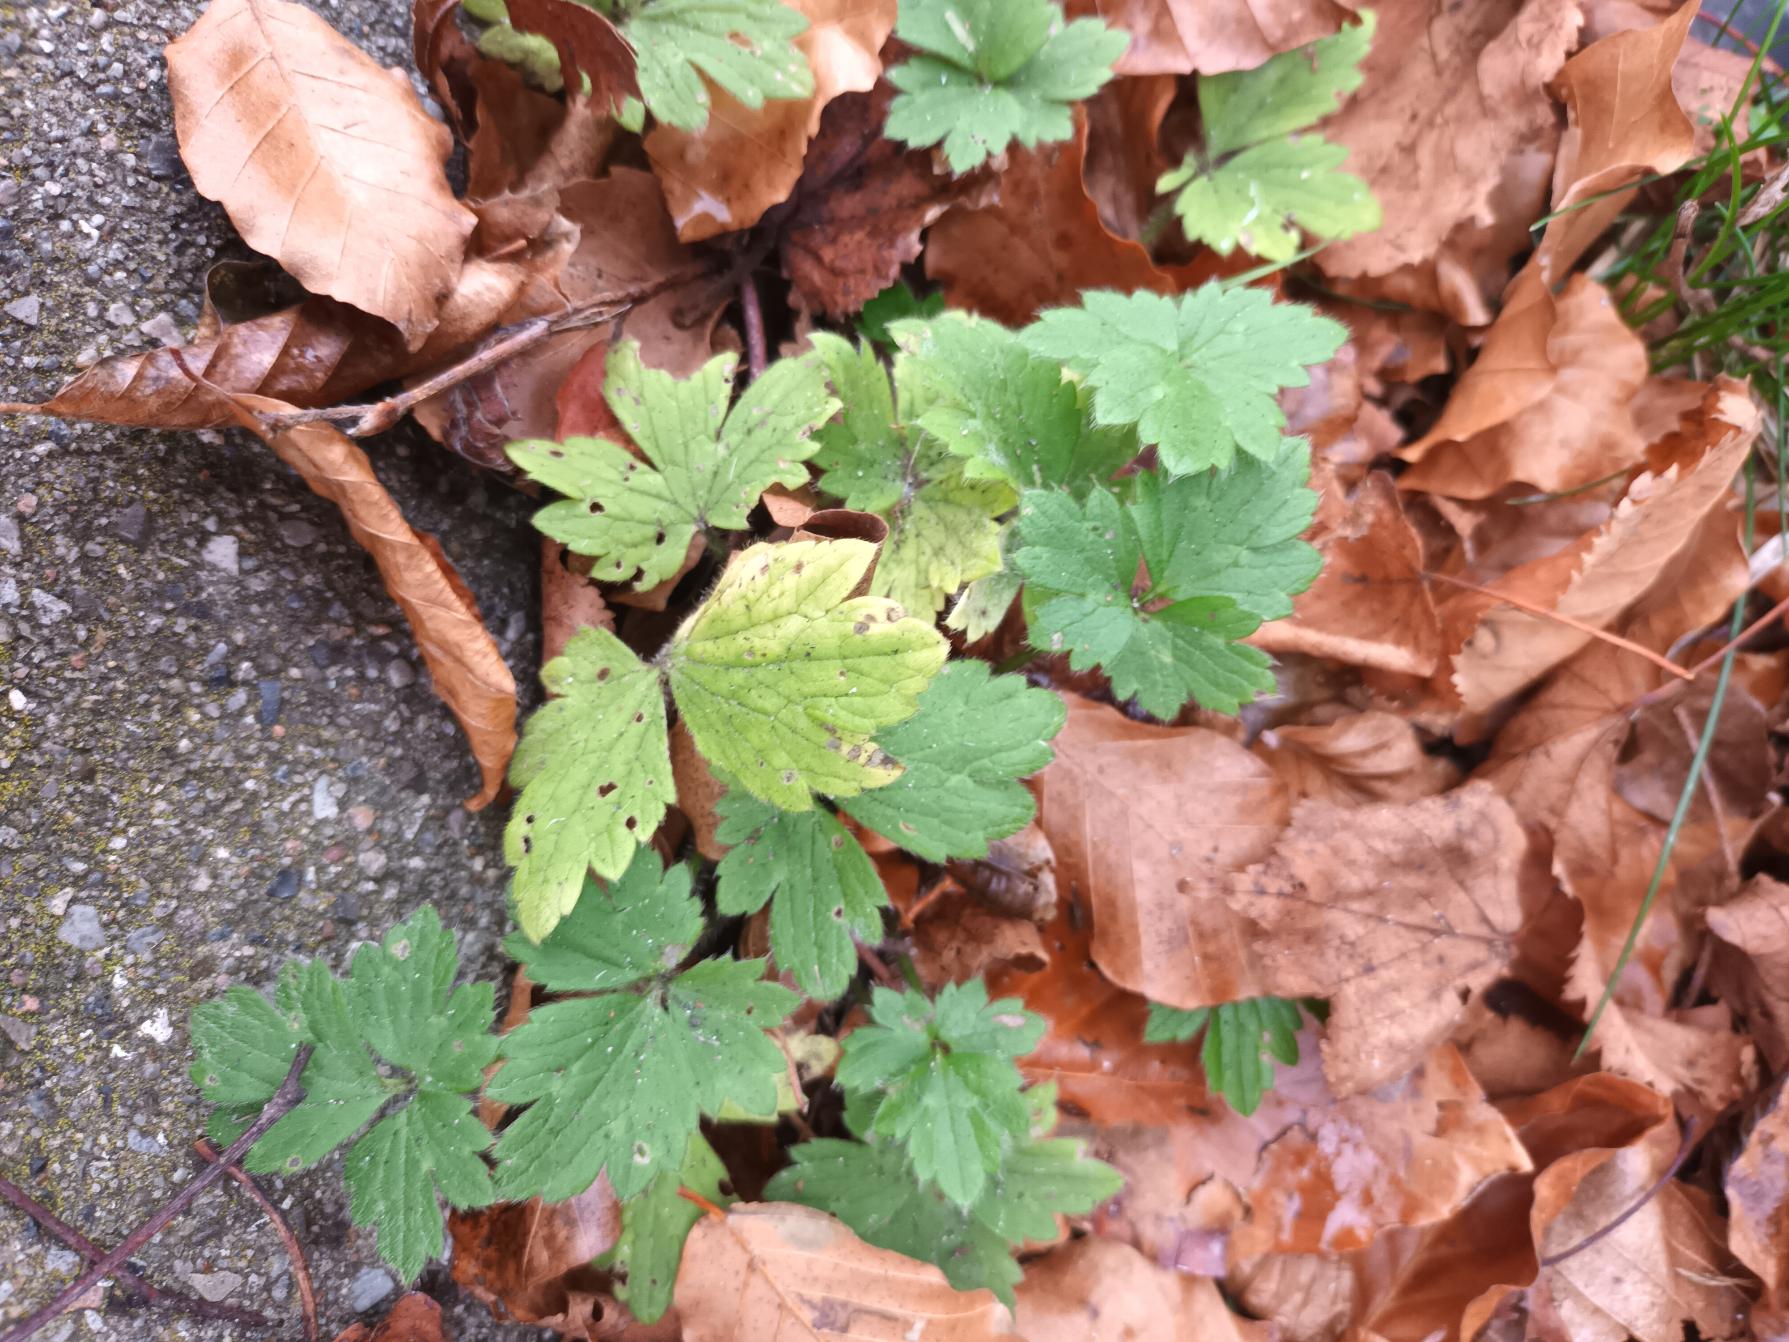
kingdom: Plantae
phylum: Tracheophyta
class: Magnoliopsida
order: Ranunculales
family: Ranunculaceae
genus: Ranunculus
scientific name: Ranunculus repens
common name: Lav ranunkel
